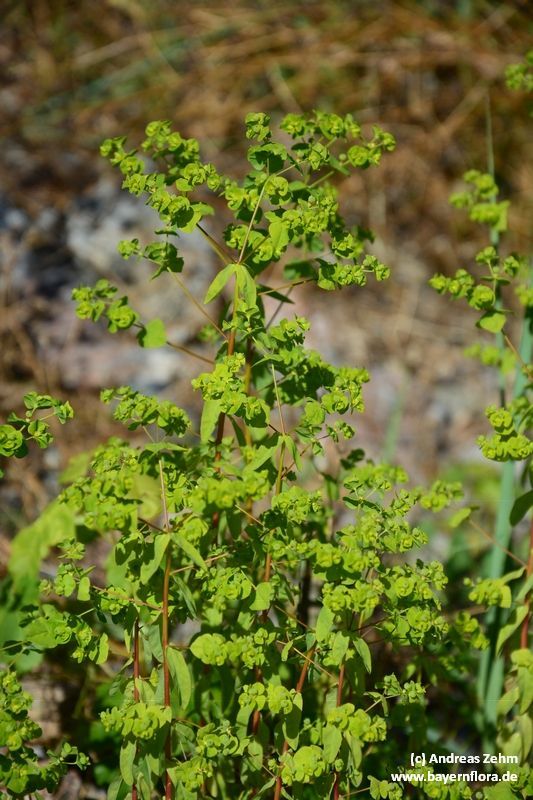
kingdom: Plantae
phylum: Tracheophyta
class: Magnoliopsida
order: Malpighiales
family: Euphorbiaceae
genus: Euphorbia
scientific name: Euphorbia stricta
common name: Upright spurge
